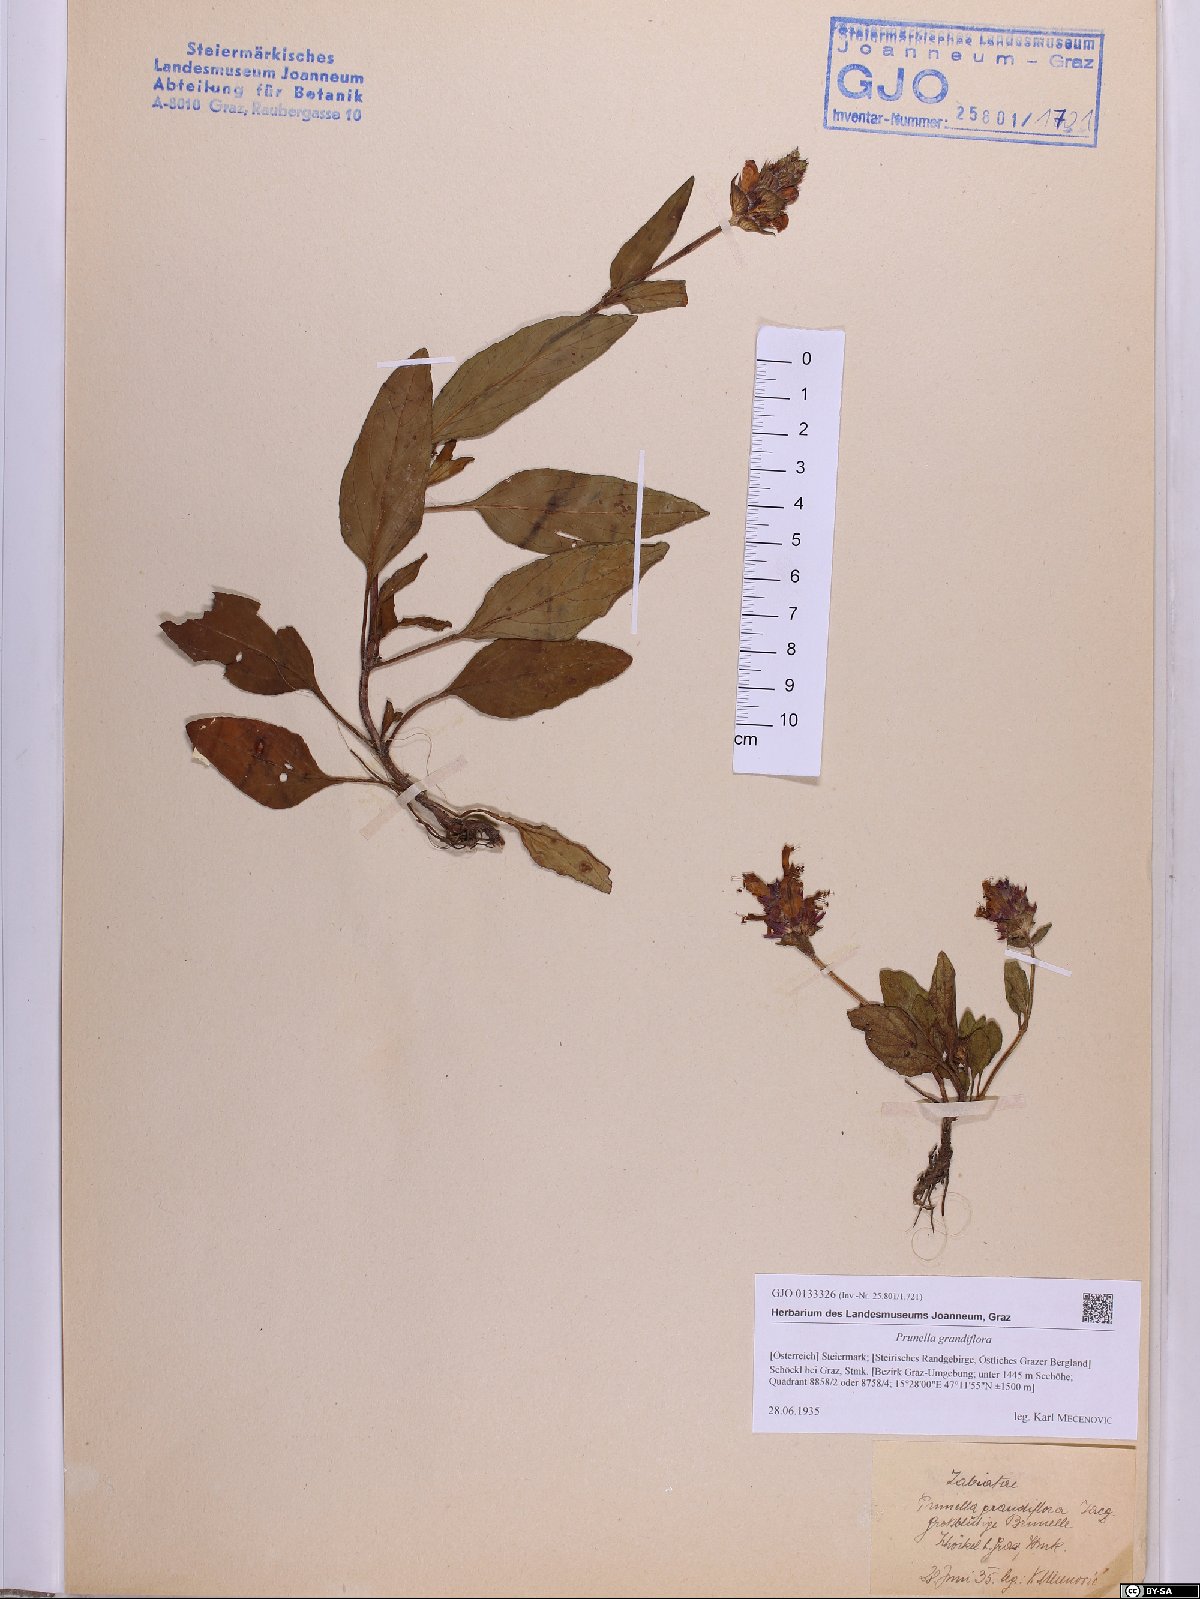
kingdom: Plantae
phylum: Tracheophyta
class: Magnoliopsida
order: Lamiales
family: Lamiaceae
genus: Prunella
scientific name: Prunella grandiflora
